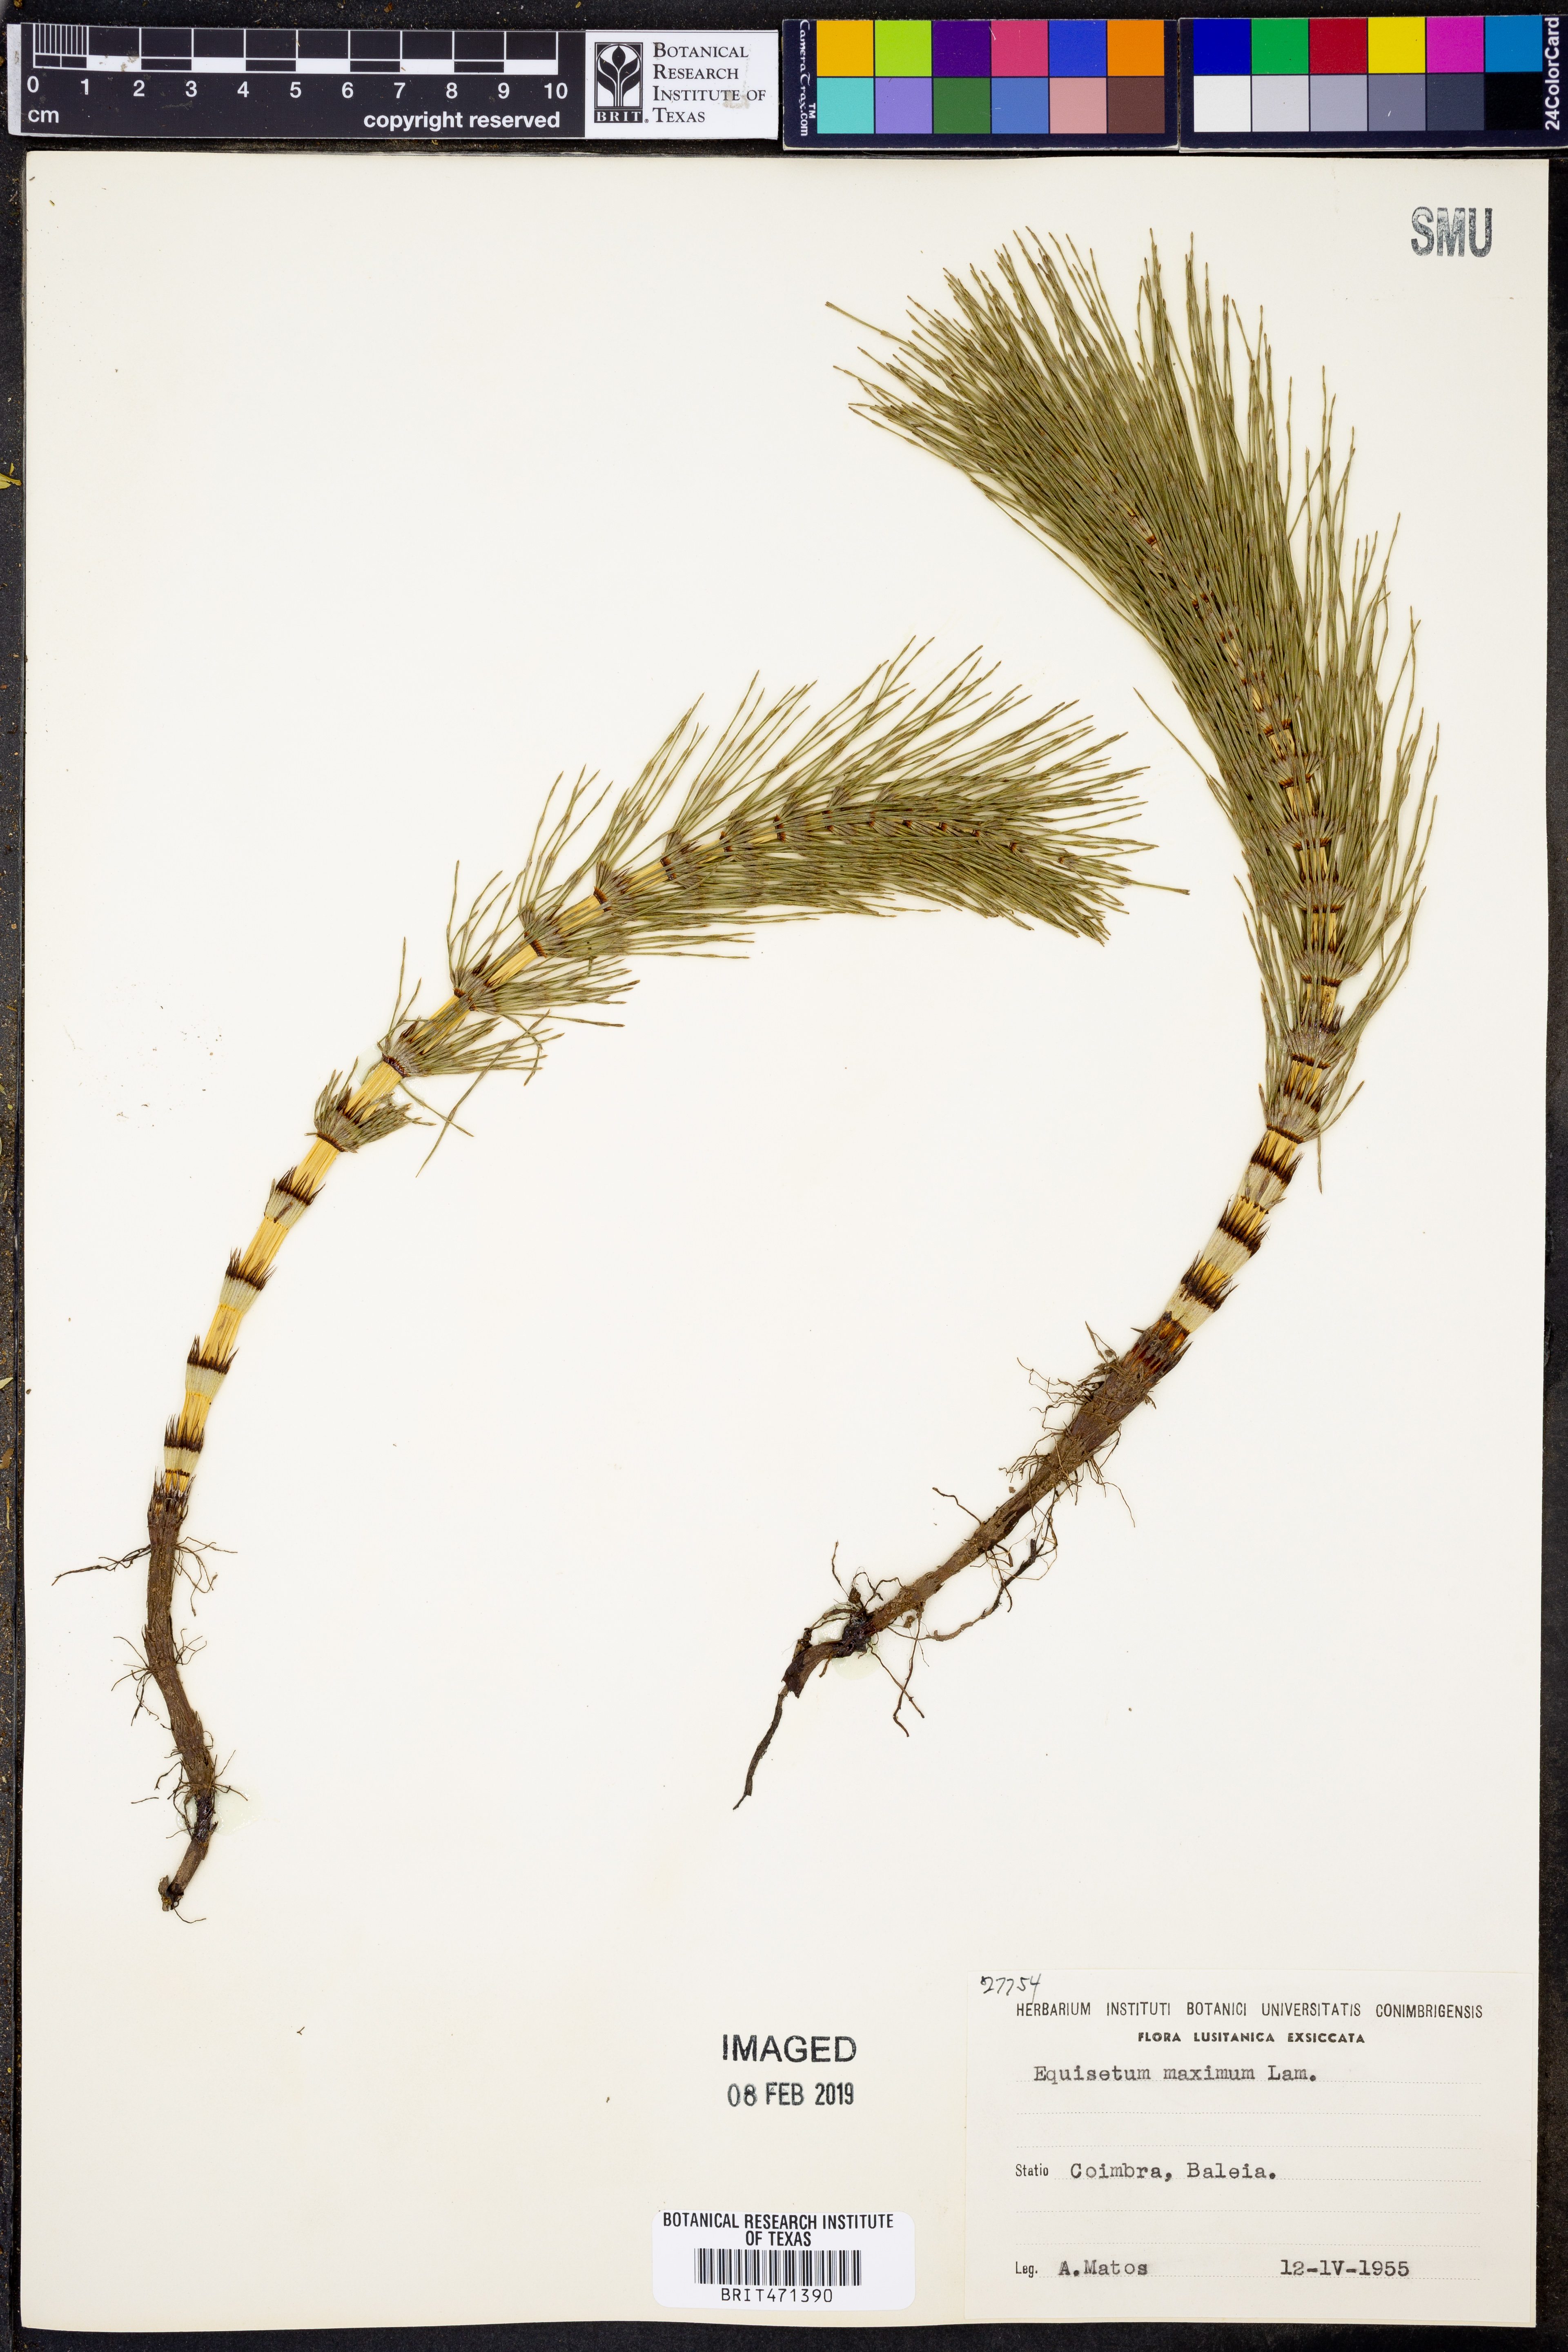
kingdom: Plantae
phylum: Tracheophyta
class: Polypodiopsida
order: Equisetales
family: Equisetaceae
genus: Equisetum
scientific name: Equisetum
